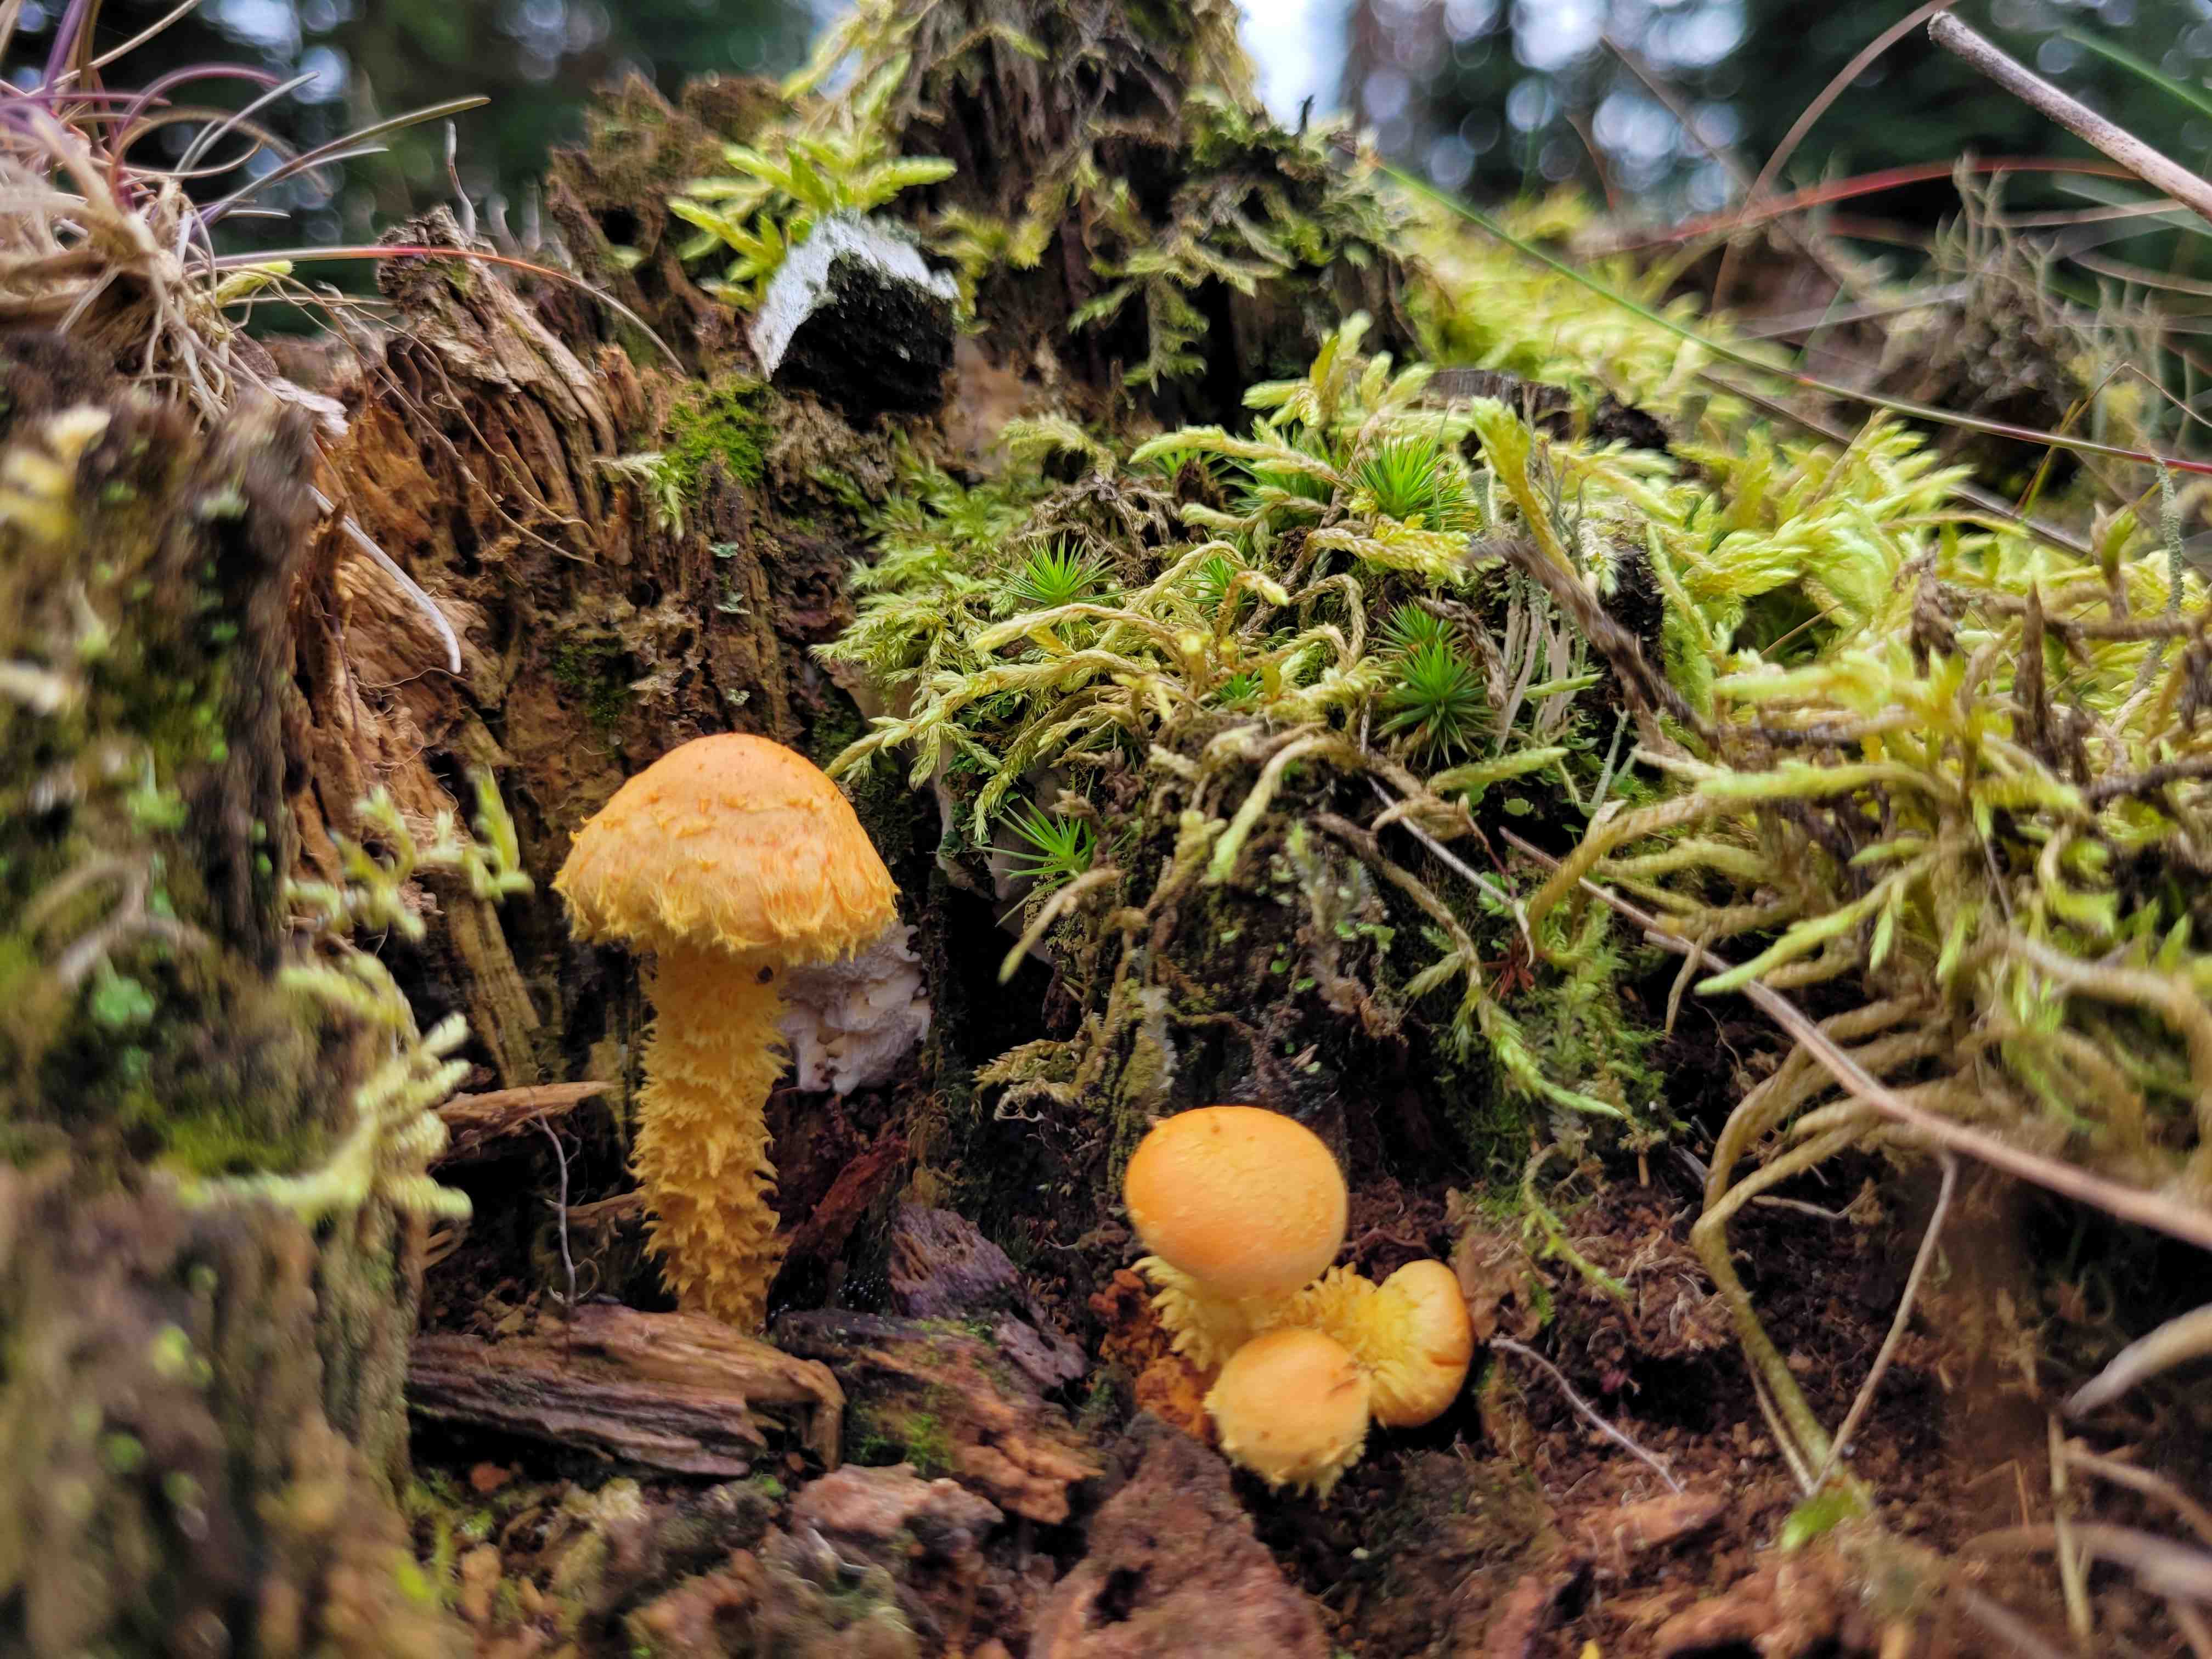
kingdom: Fungi
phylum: Basidiomycota
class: Agaricomycetes
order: Agaricales
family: Strophariaceae
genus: Pholiota
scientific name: Pholiota flammans
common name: flamme-skælhat
